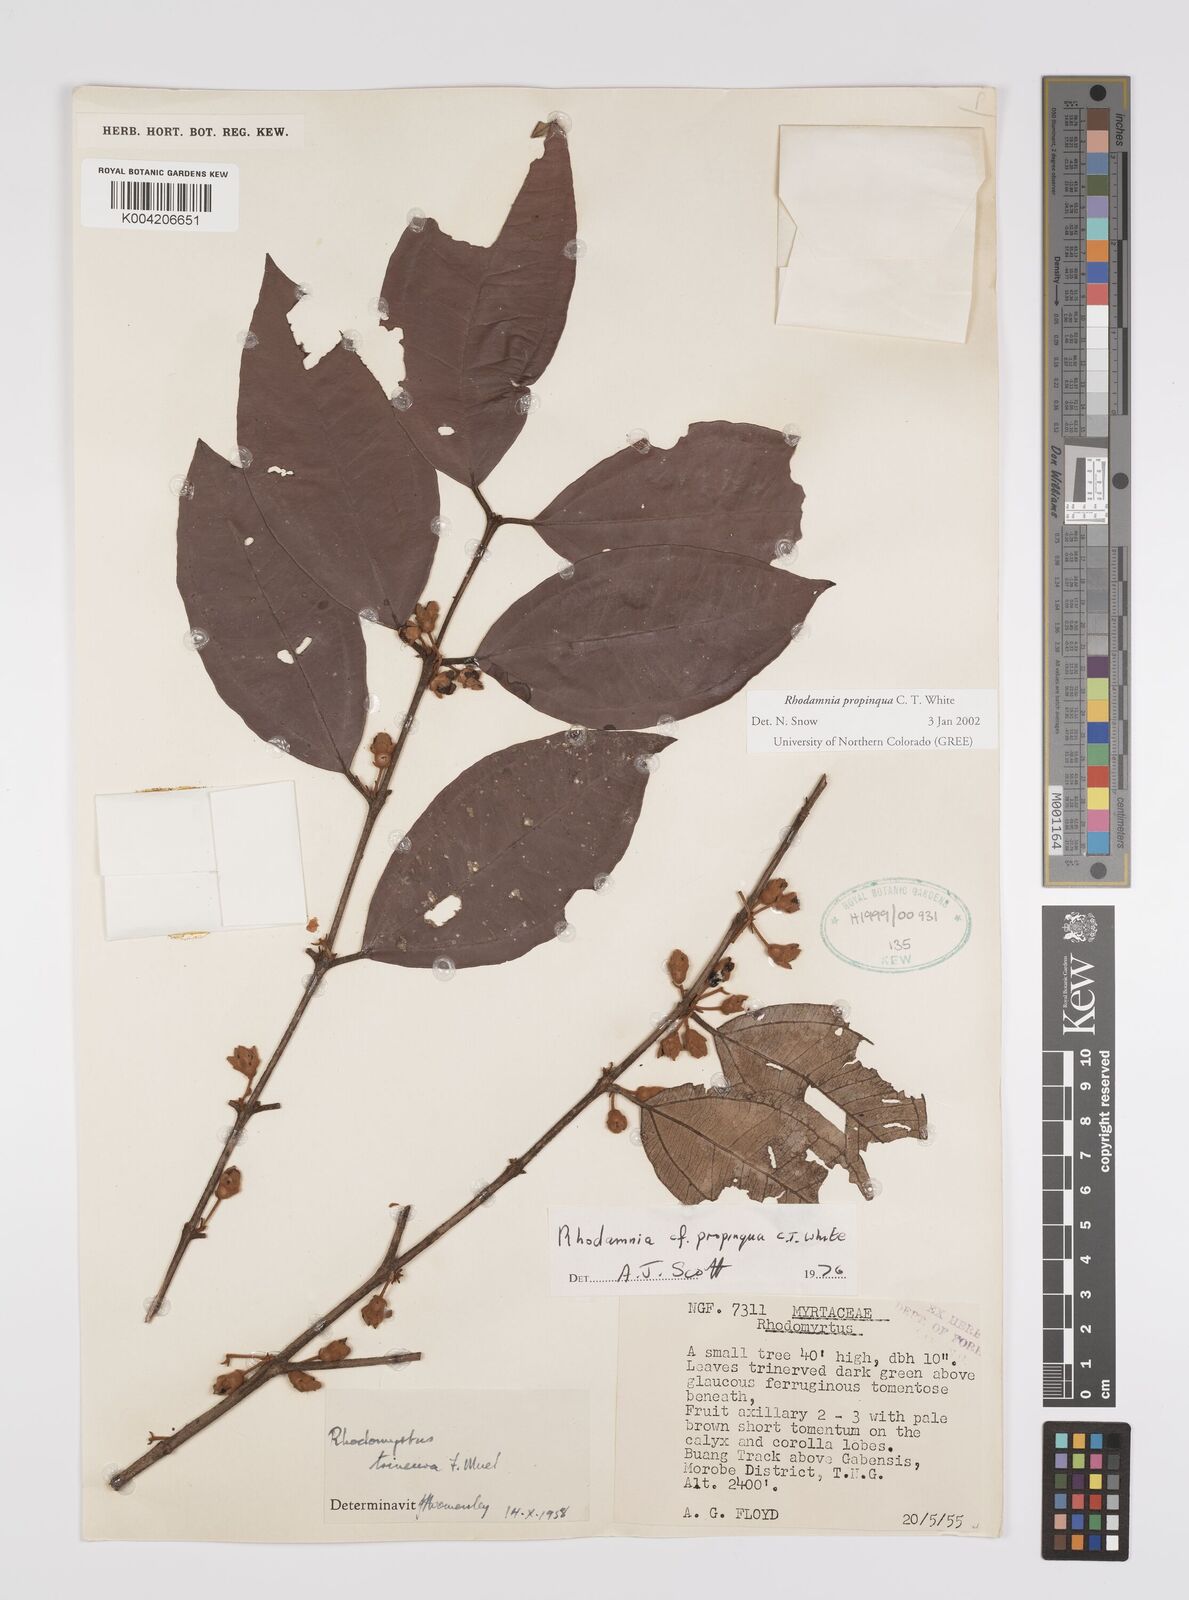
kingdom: Plantae
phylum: Tracheophyta
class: Magnoliopsida
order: Myrtales
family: Myrtaceae
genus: Rhodamnia
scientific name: Rhodamnia blairiana
